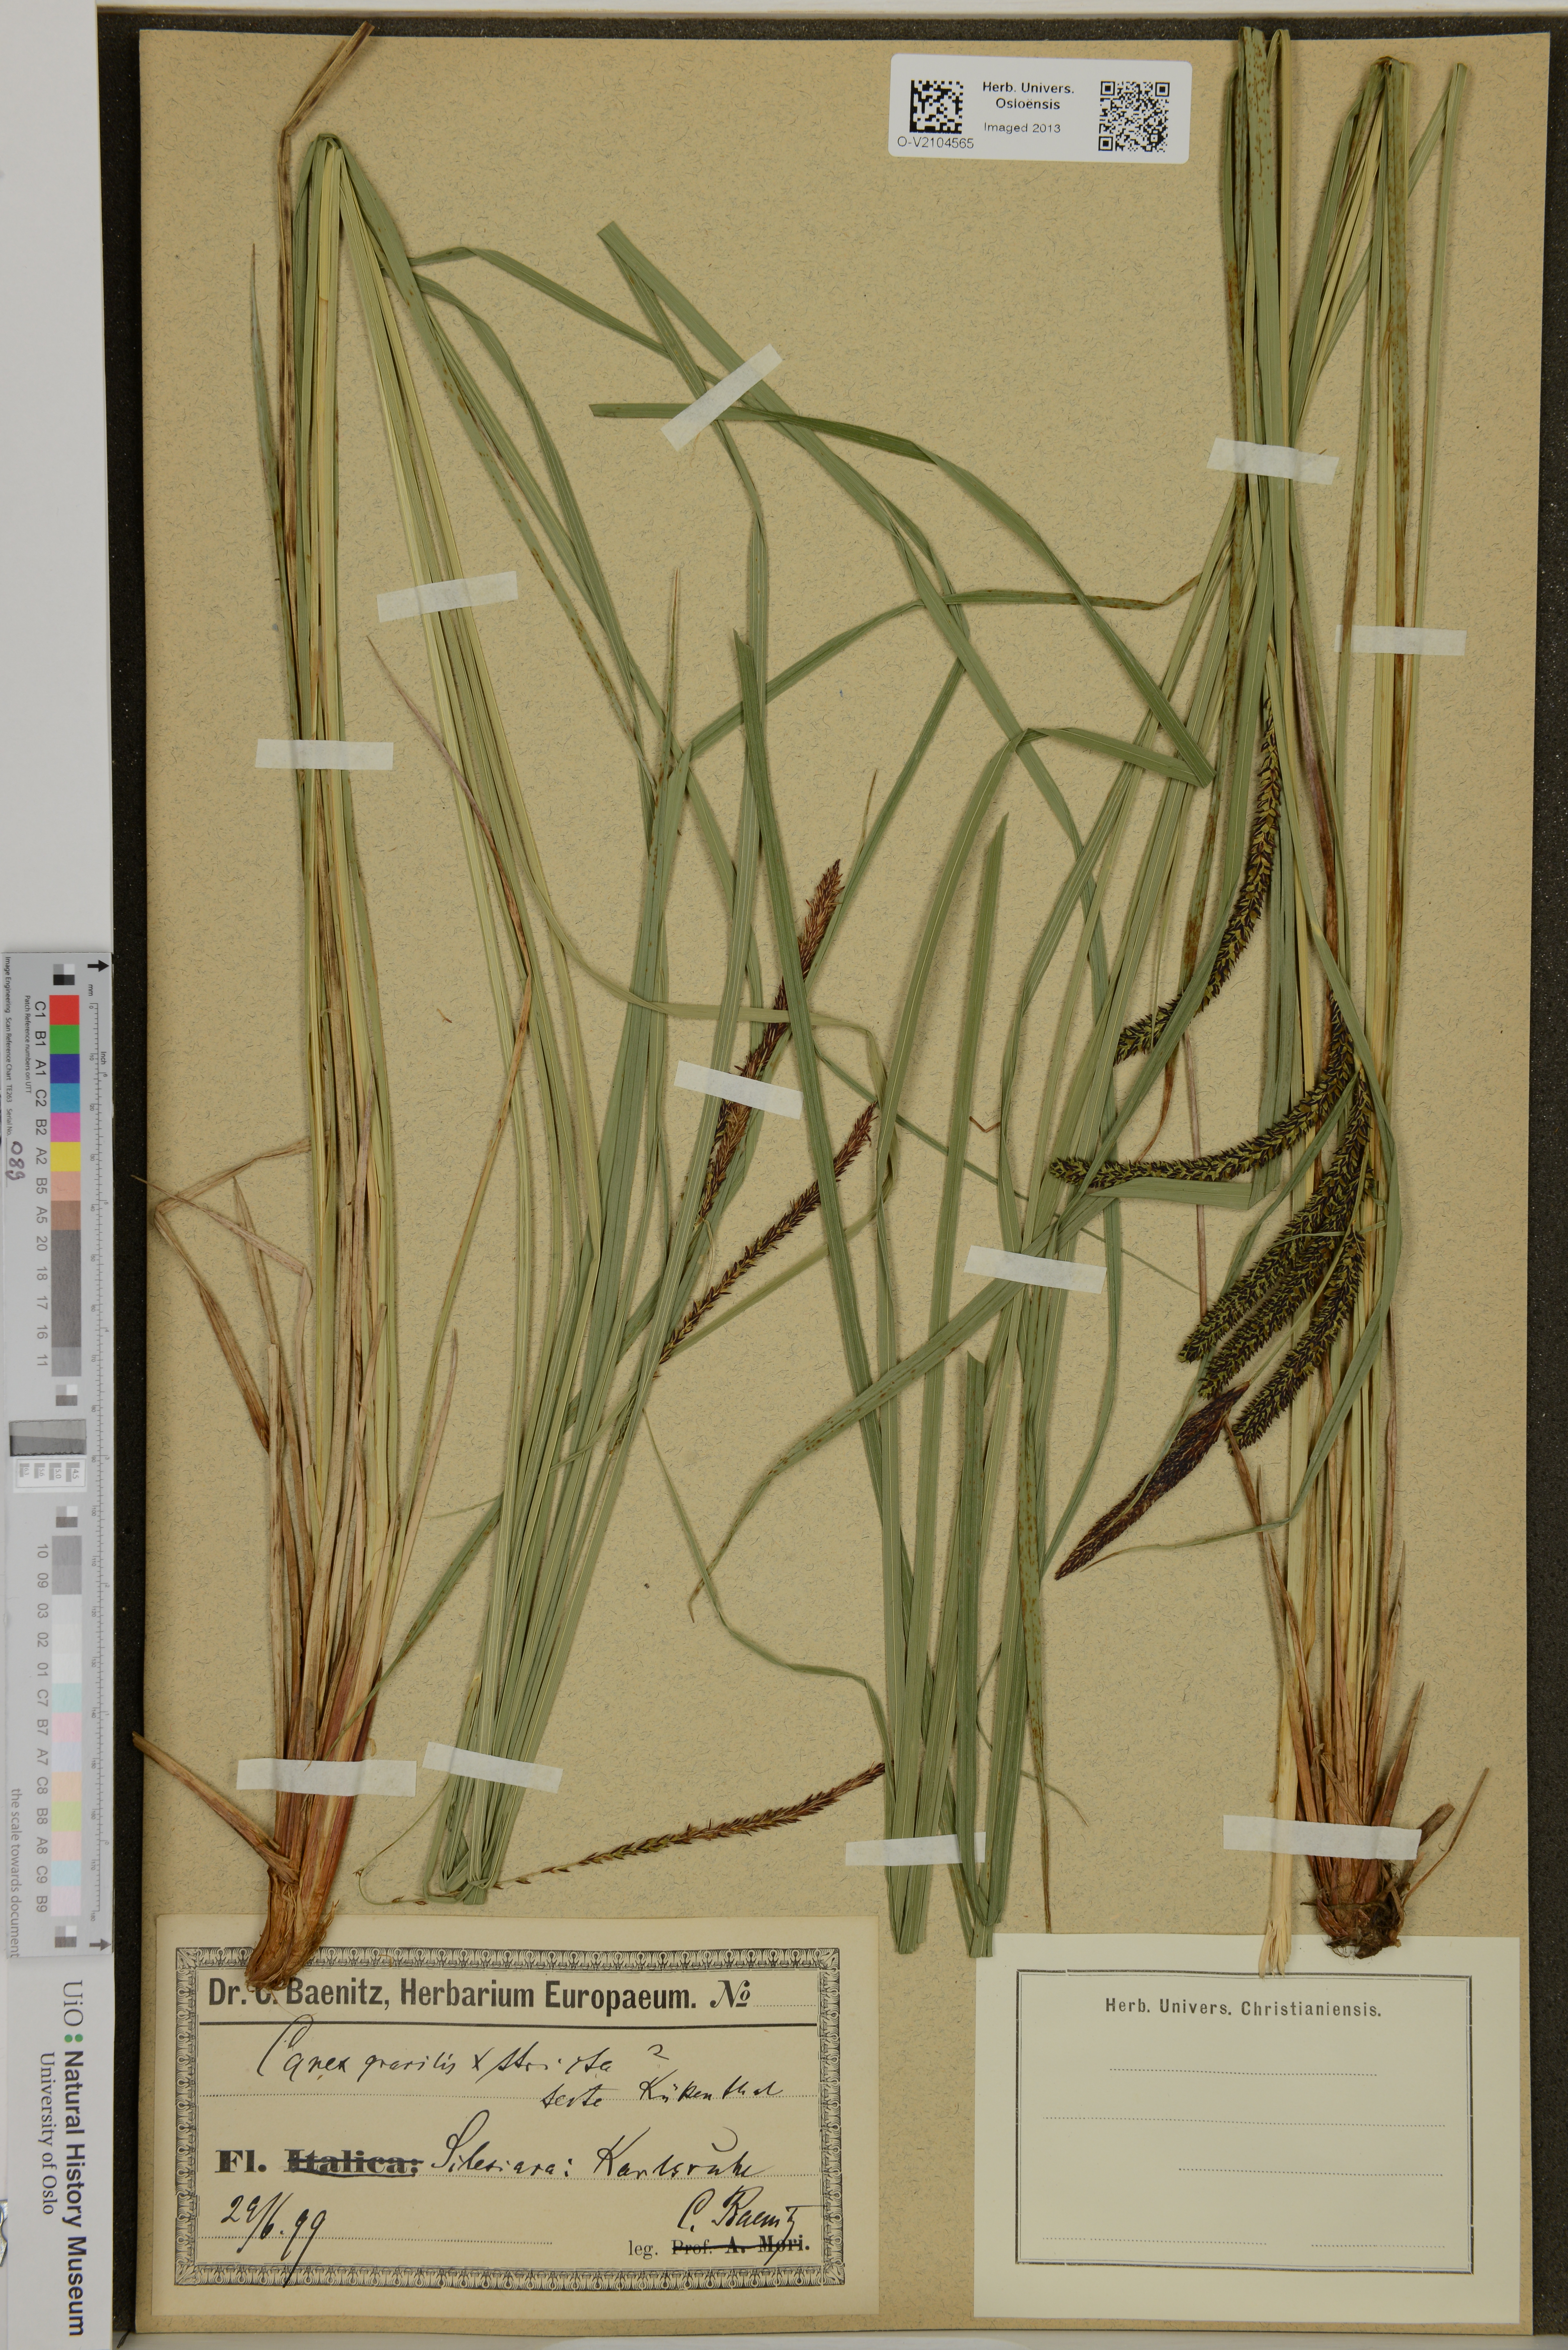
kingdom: Plantae
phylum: Tracheophyta
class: Liliopsida
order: Poales
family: Cyperaceae
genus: Carex
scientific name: Carex
